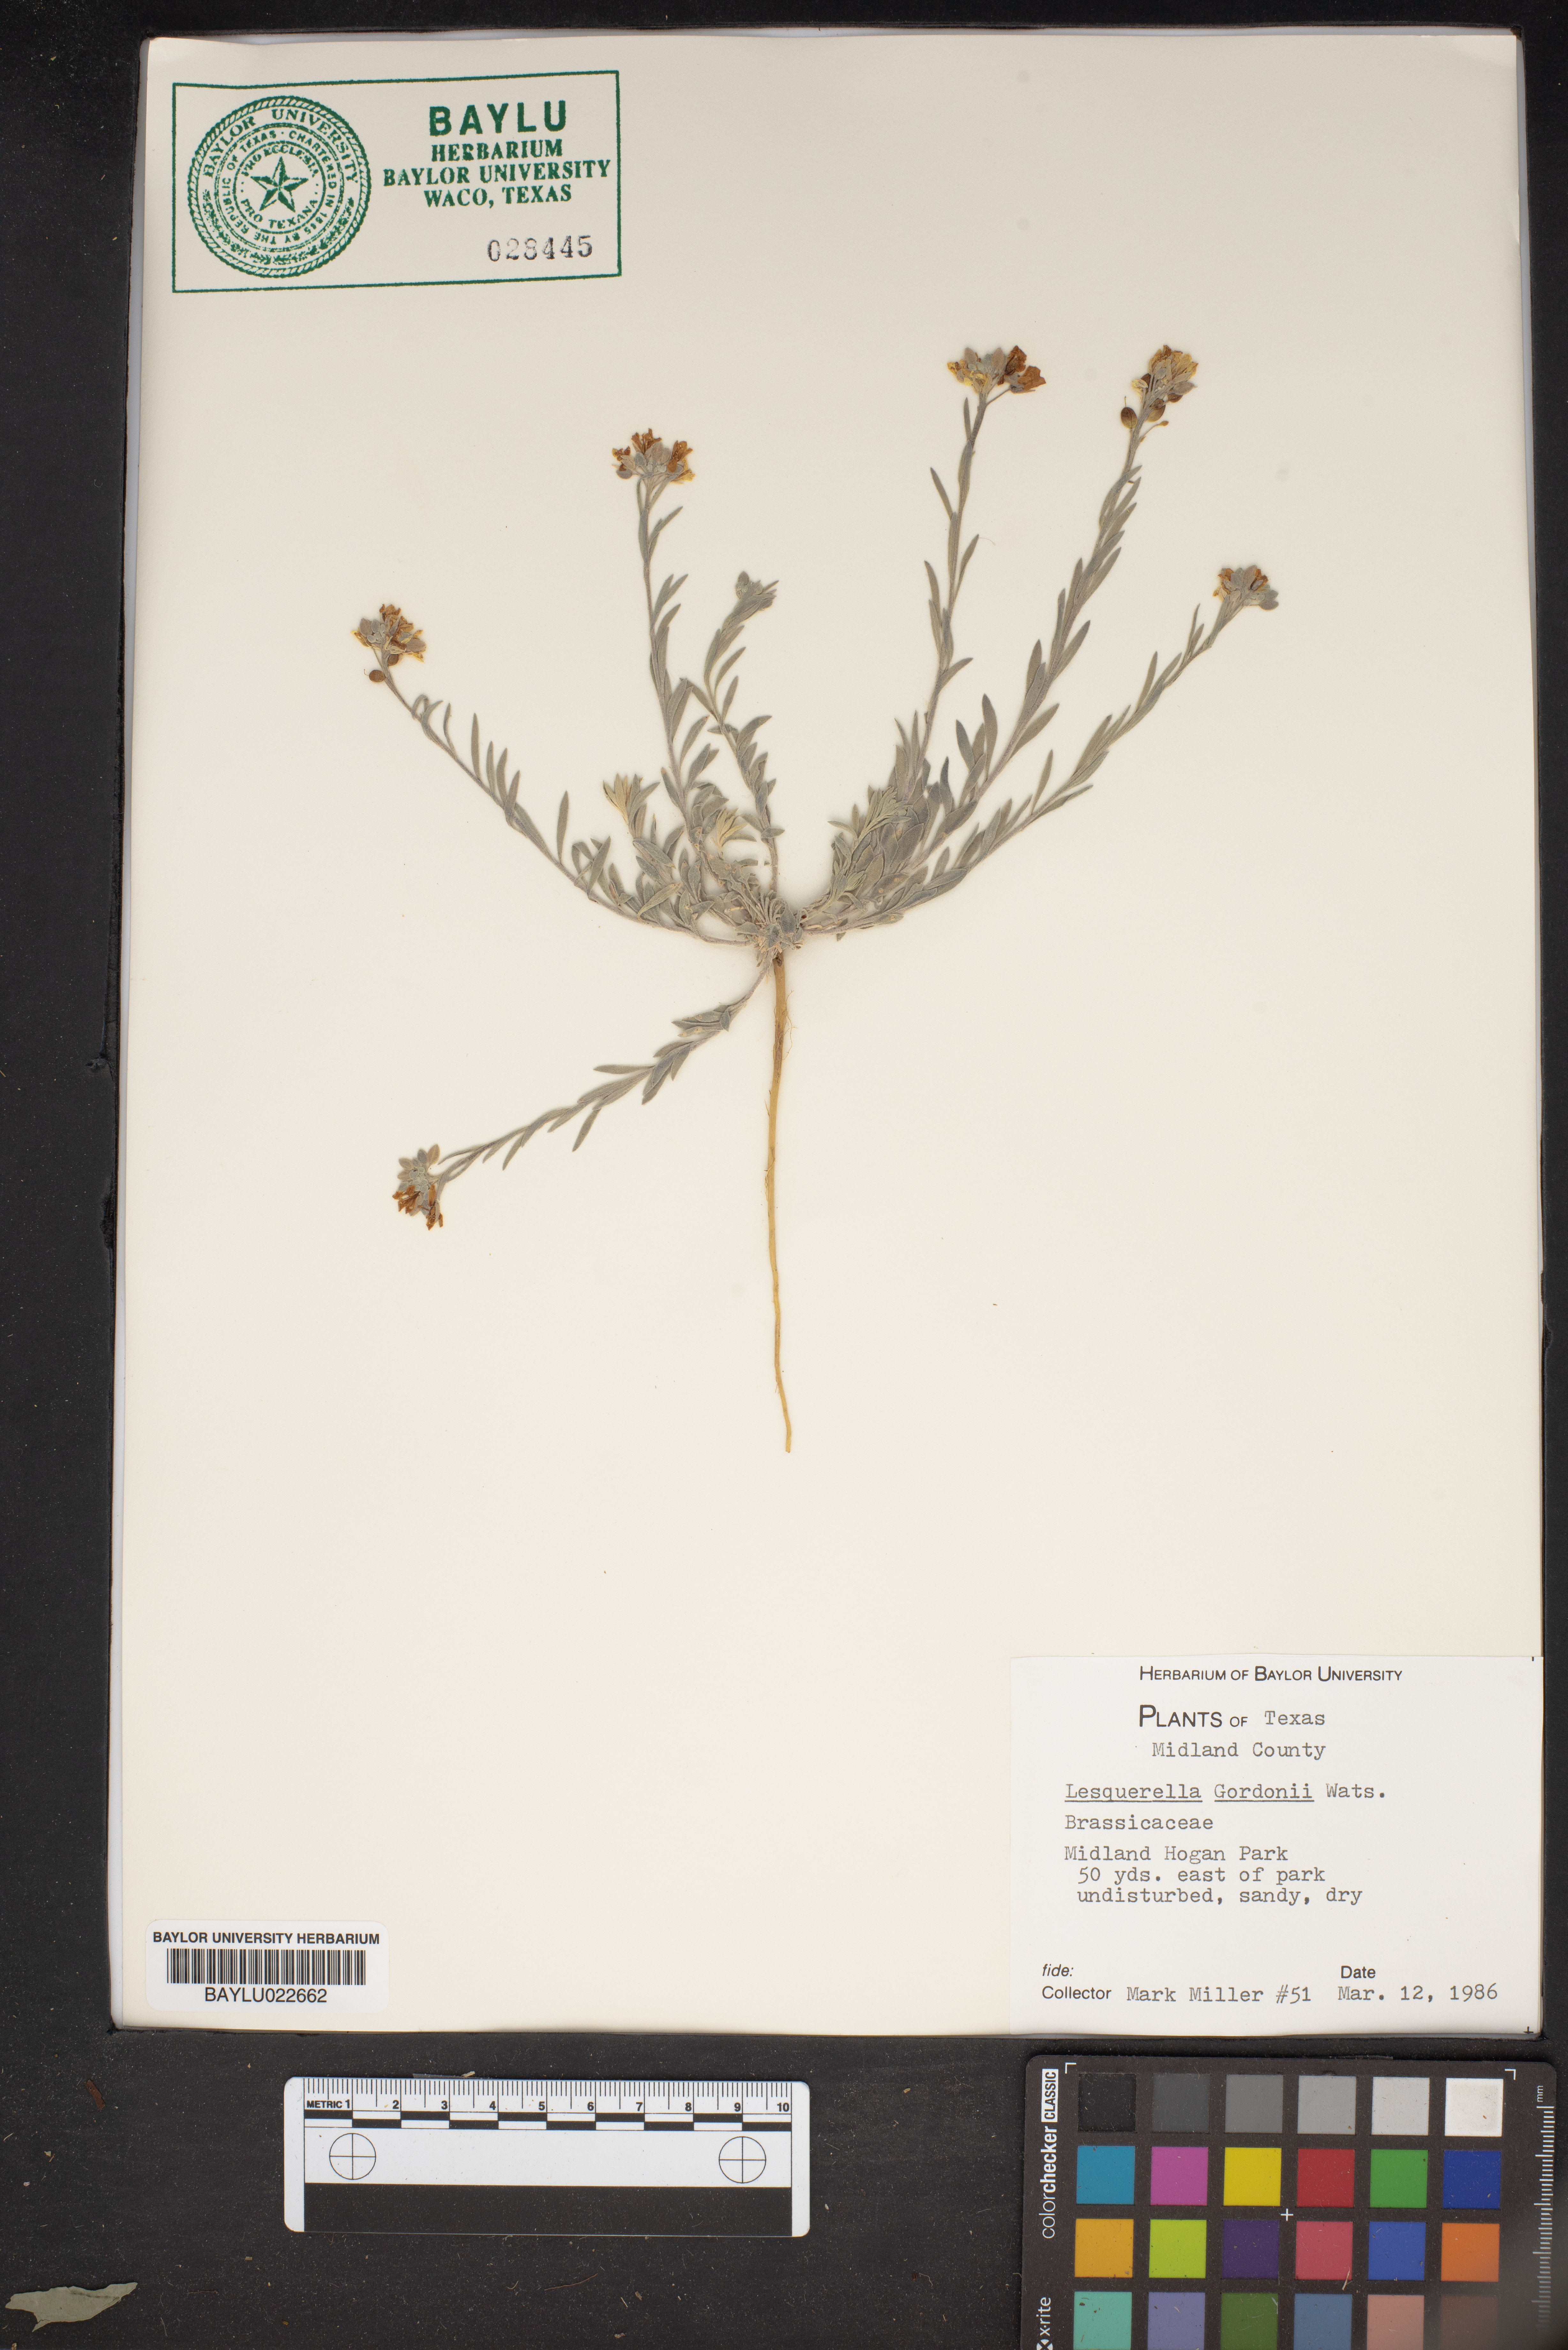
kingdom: Plantae
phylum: Tracheophyta
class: Magnoliopsida
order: Brassicales
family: Brassicaceae
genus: Physaria
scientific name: Physaria gordonii
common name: Gordon's bladderpod
